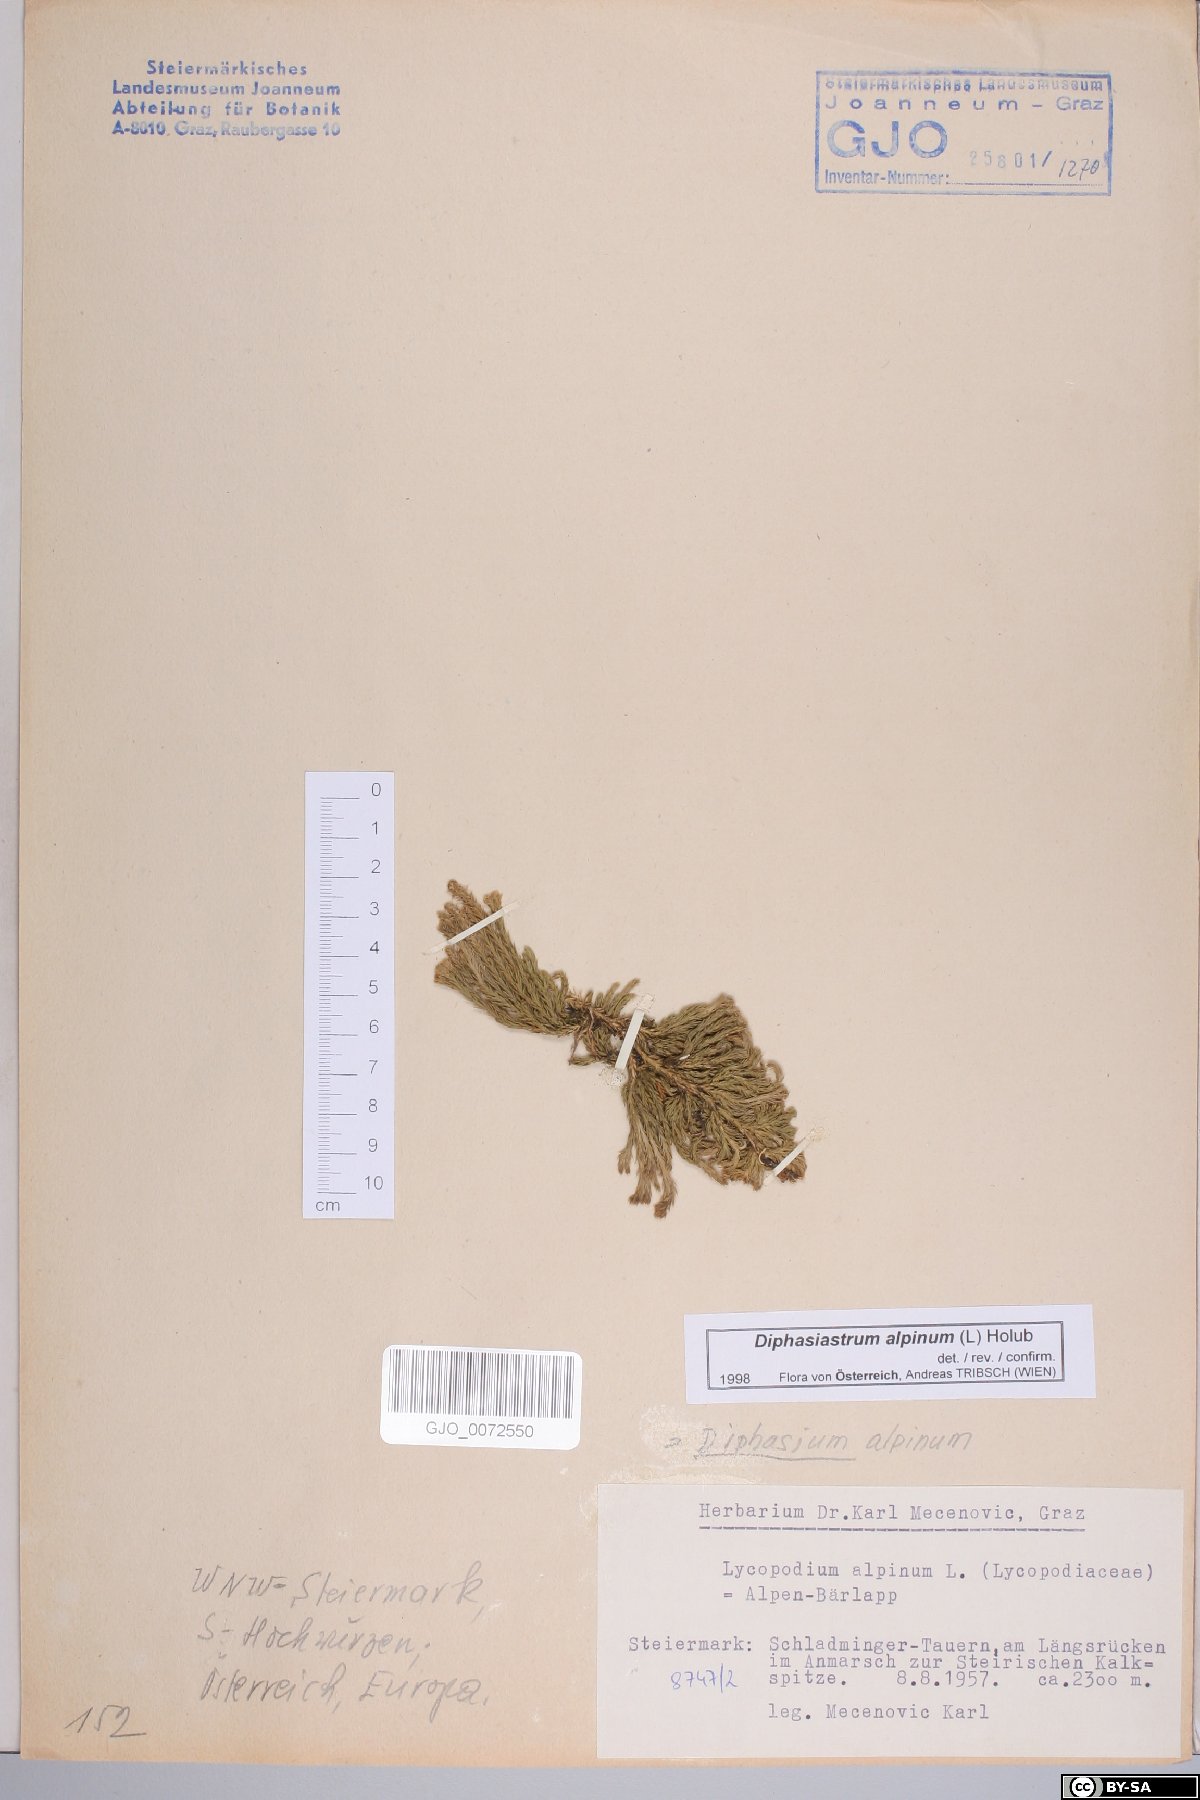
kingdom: Plantae
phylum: Tracheophyta
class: Lycopodiopsida
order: Lycopodiales
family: Lycopodiaceae
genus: Diphasiastrum
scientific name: Diphasiastrum alpinum
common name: Alpine clubmoss
